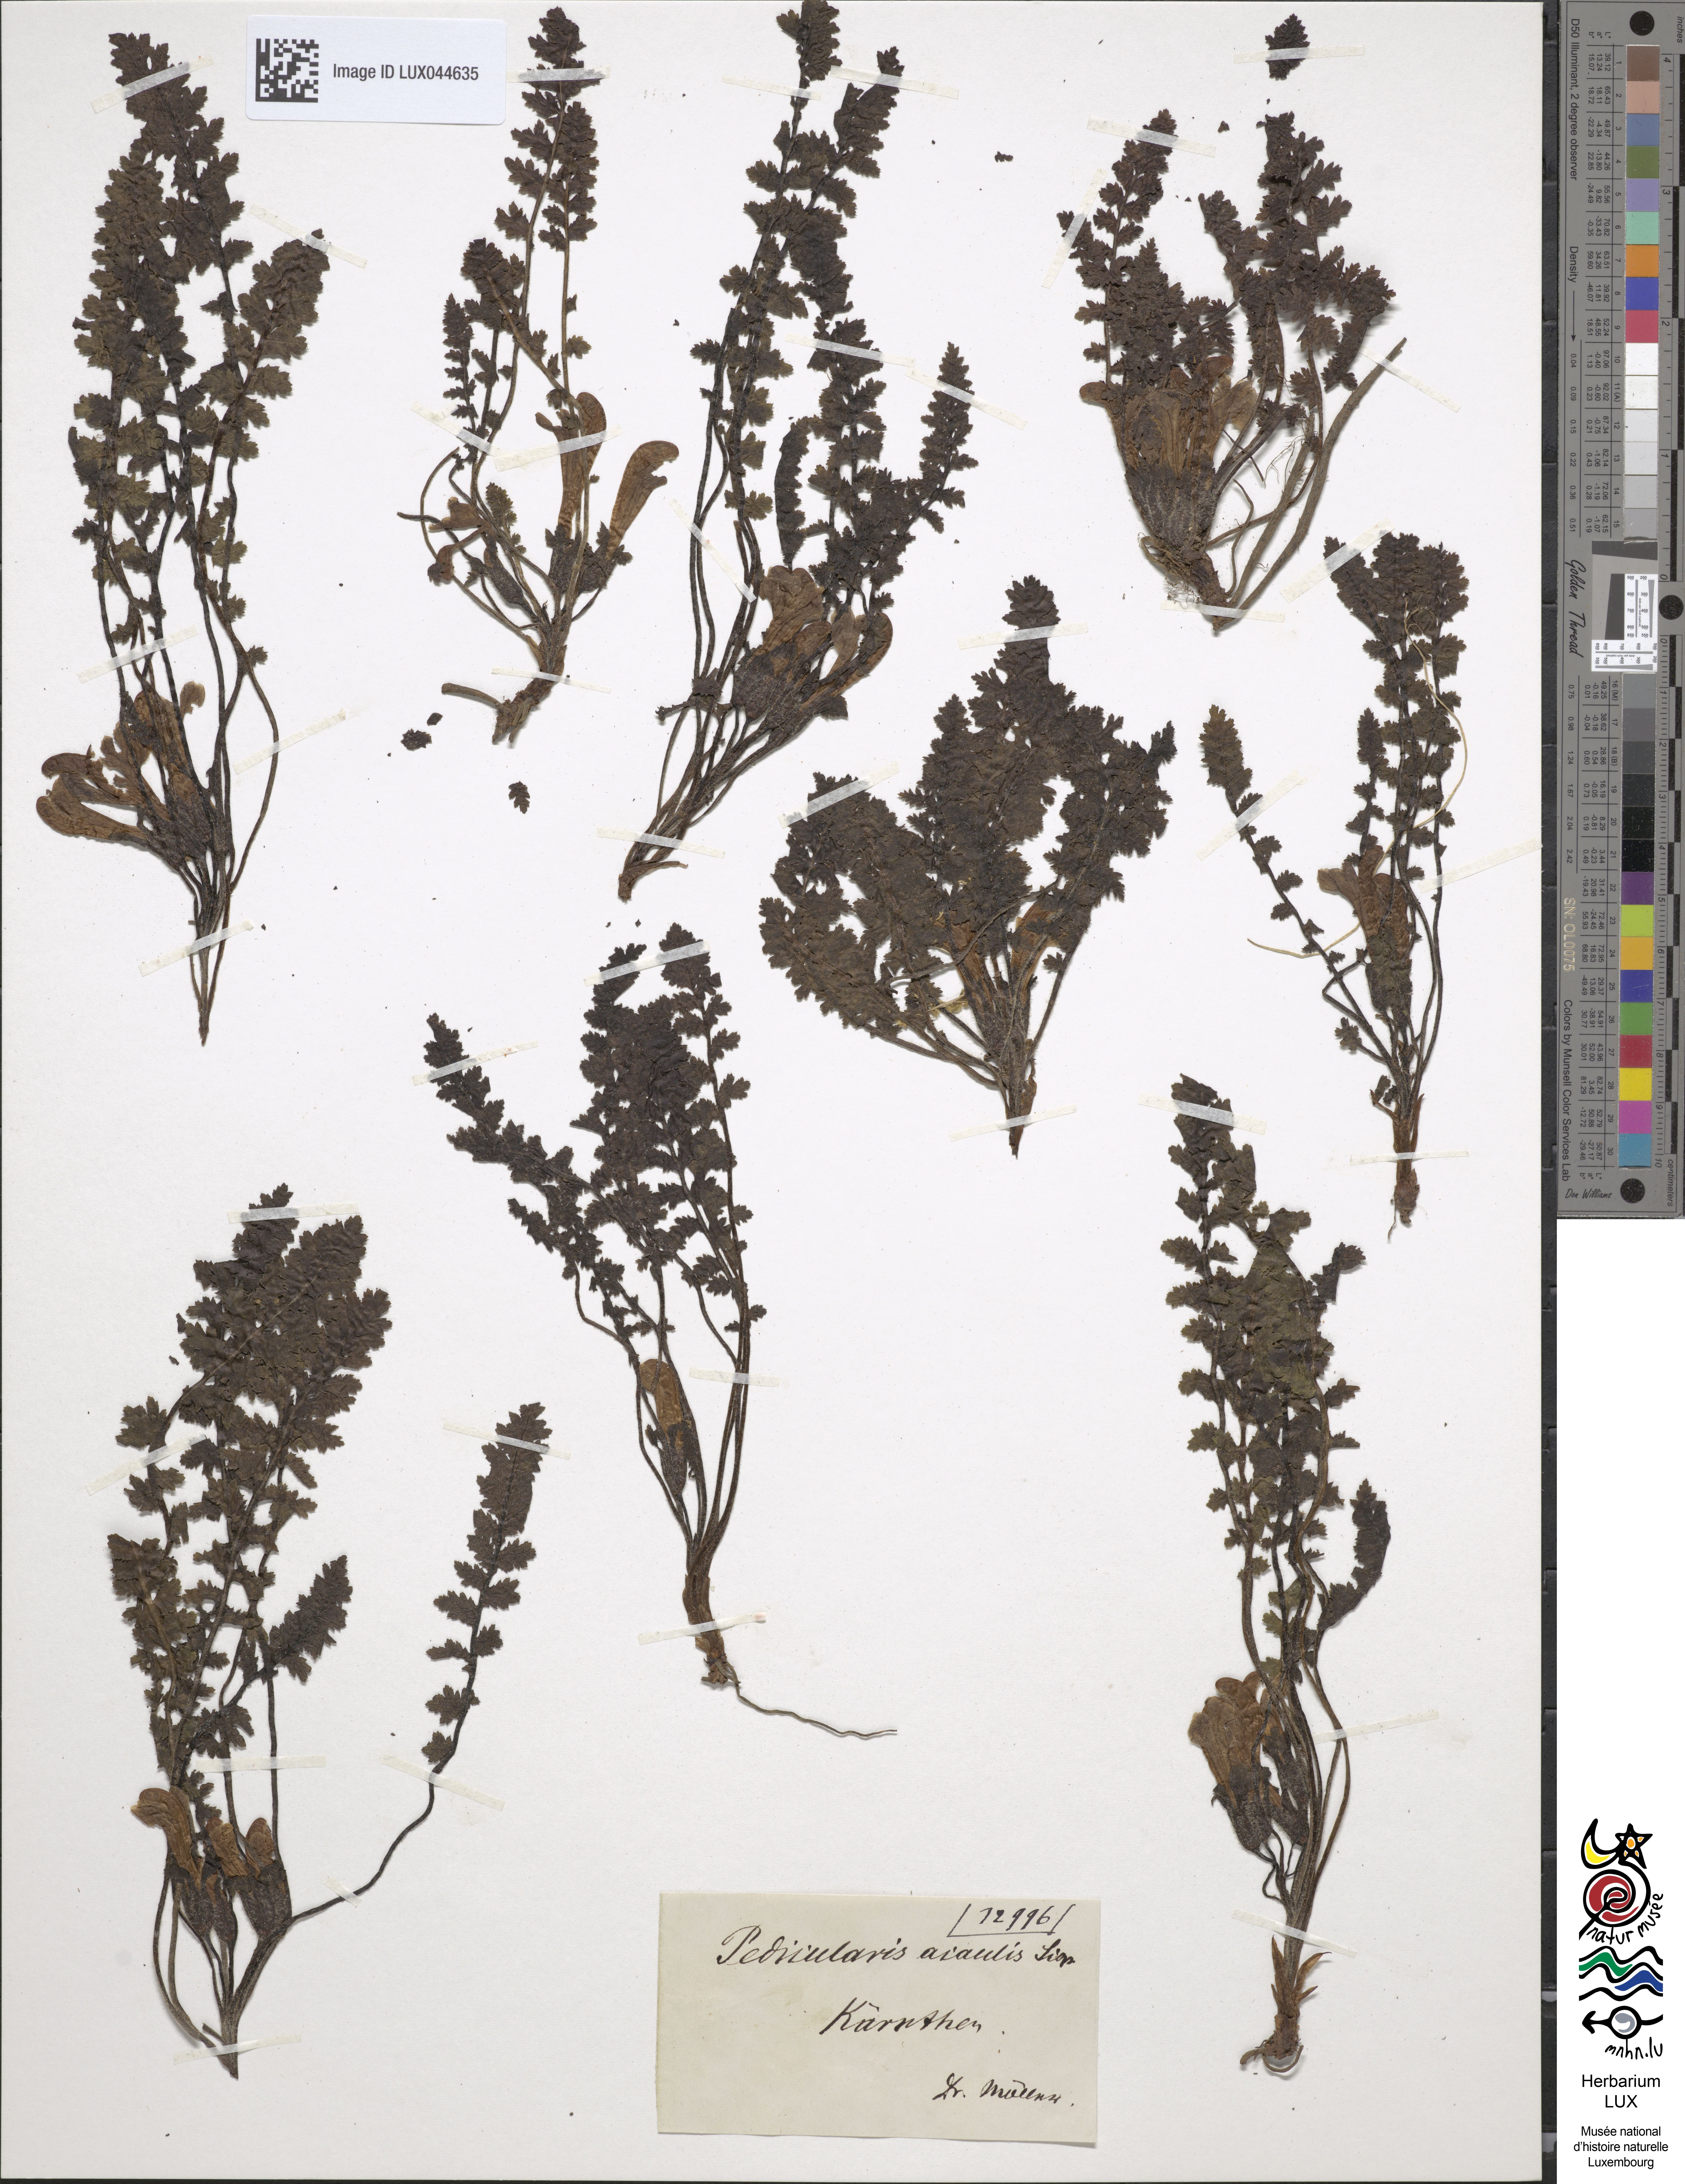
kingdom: Plantae
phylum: Tracheophyta
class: Magnoliopsida
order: Lamiales
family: Orobanchaceae
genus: Pedicularis
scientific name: Pedicularis acaulis
